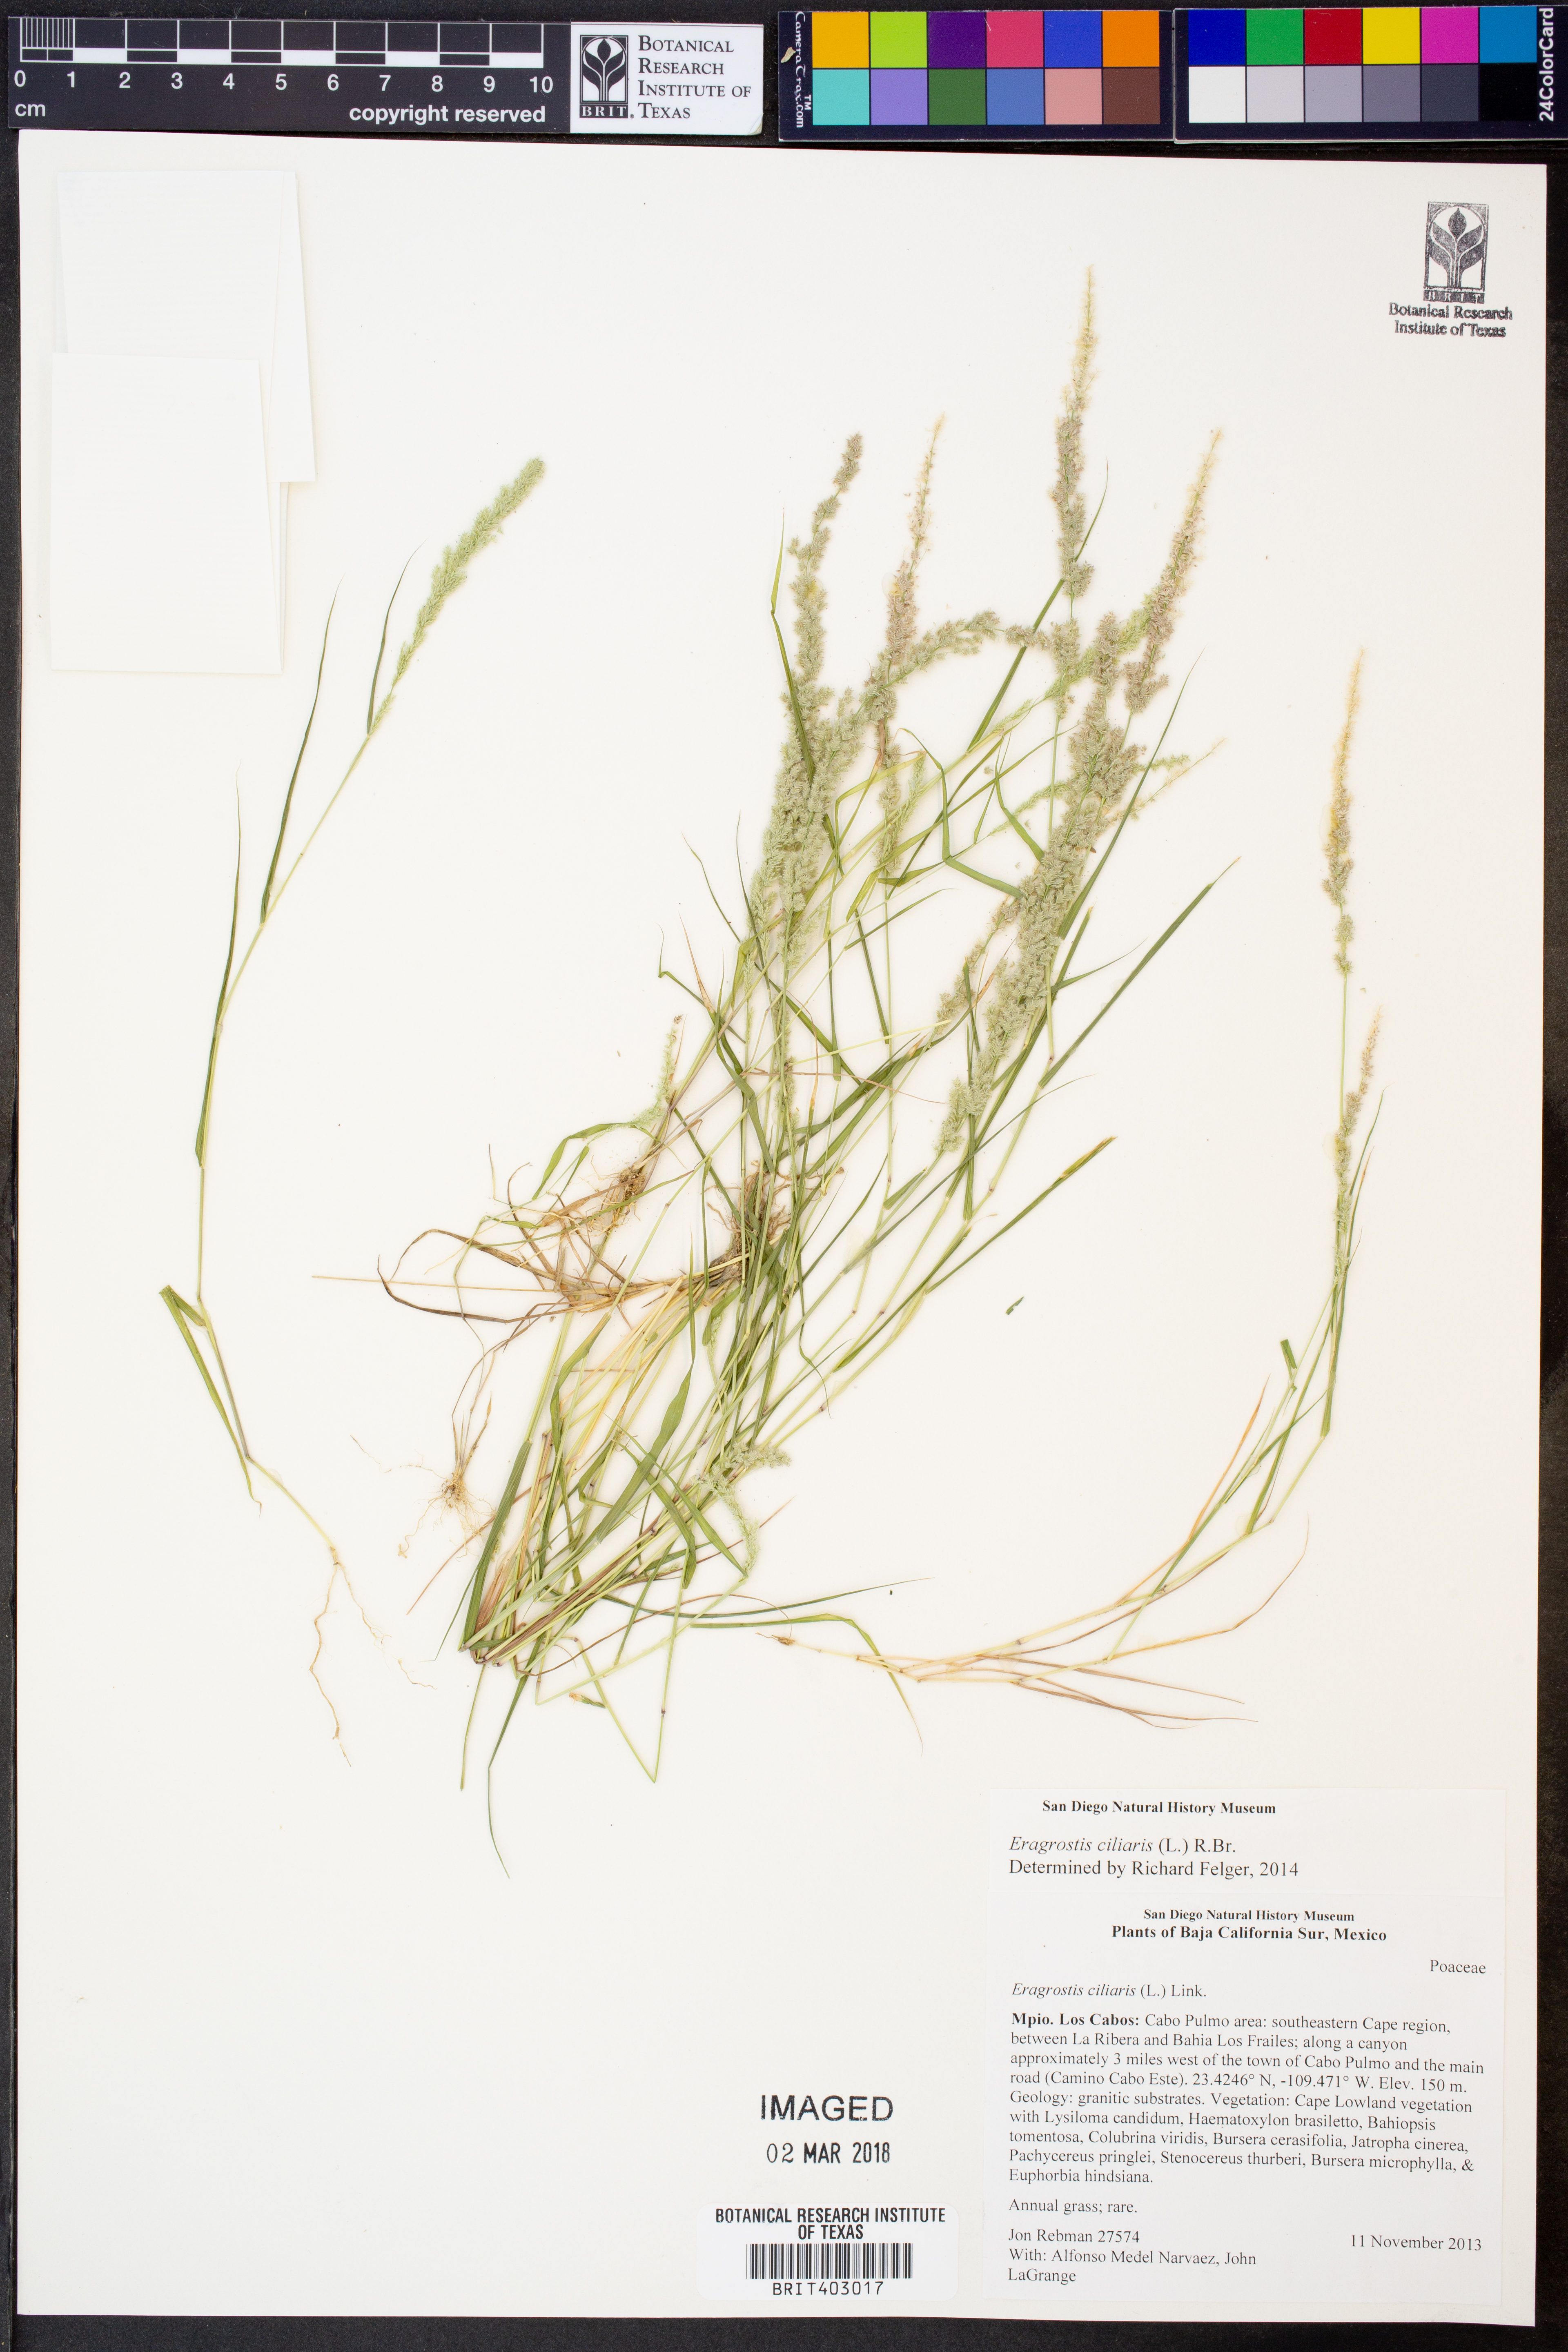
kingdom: Plantae
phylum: Tracheophyta
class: Liliopsida
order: Poales
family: Poaceae
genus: Eragrostis
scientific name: Eragrostis ciliaris
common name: Gophertail lovegrass
